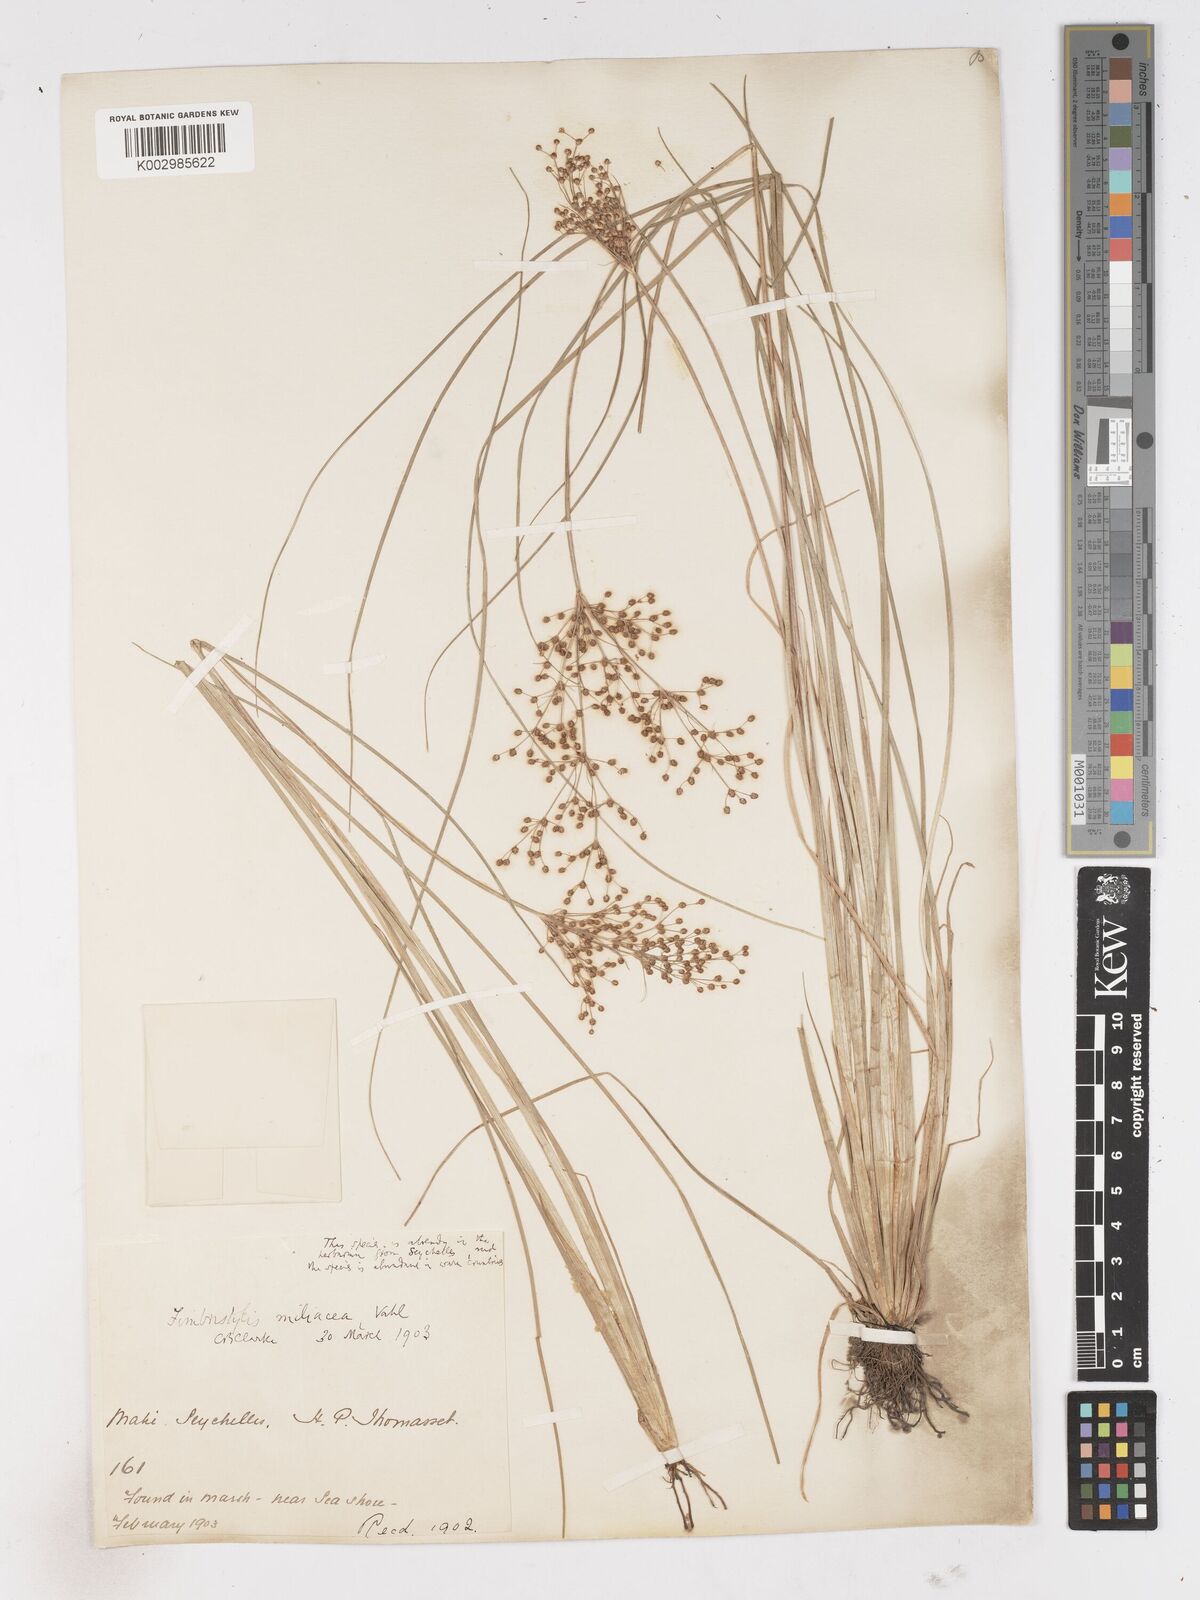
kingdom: Plantae
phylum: Tracheophyta
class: Liliopsida
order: Poales
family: Cyperaceae
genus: Fimbristylis
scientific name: Fimbristylis littoralis
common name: Fimbry
